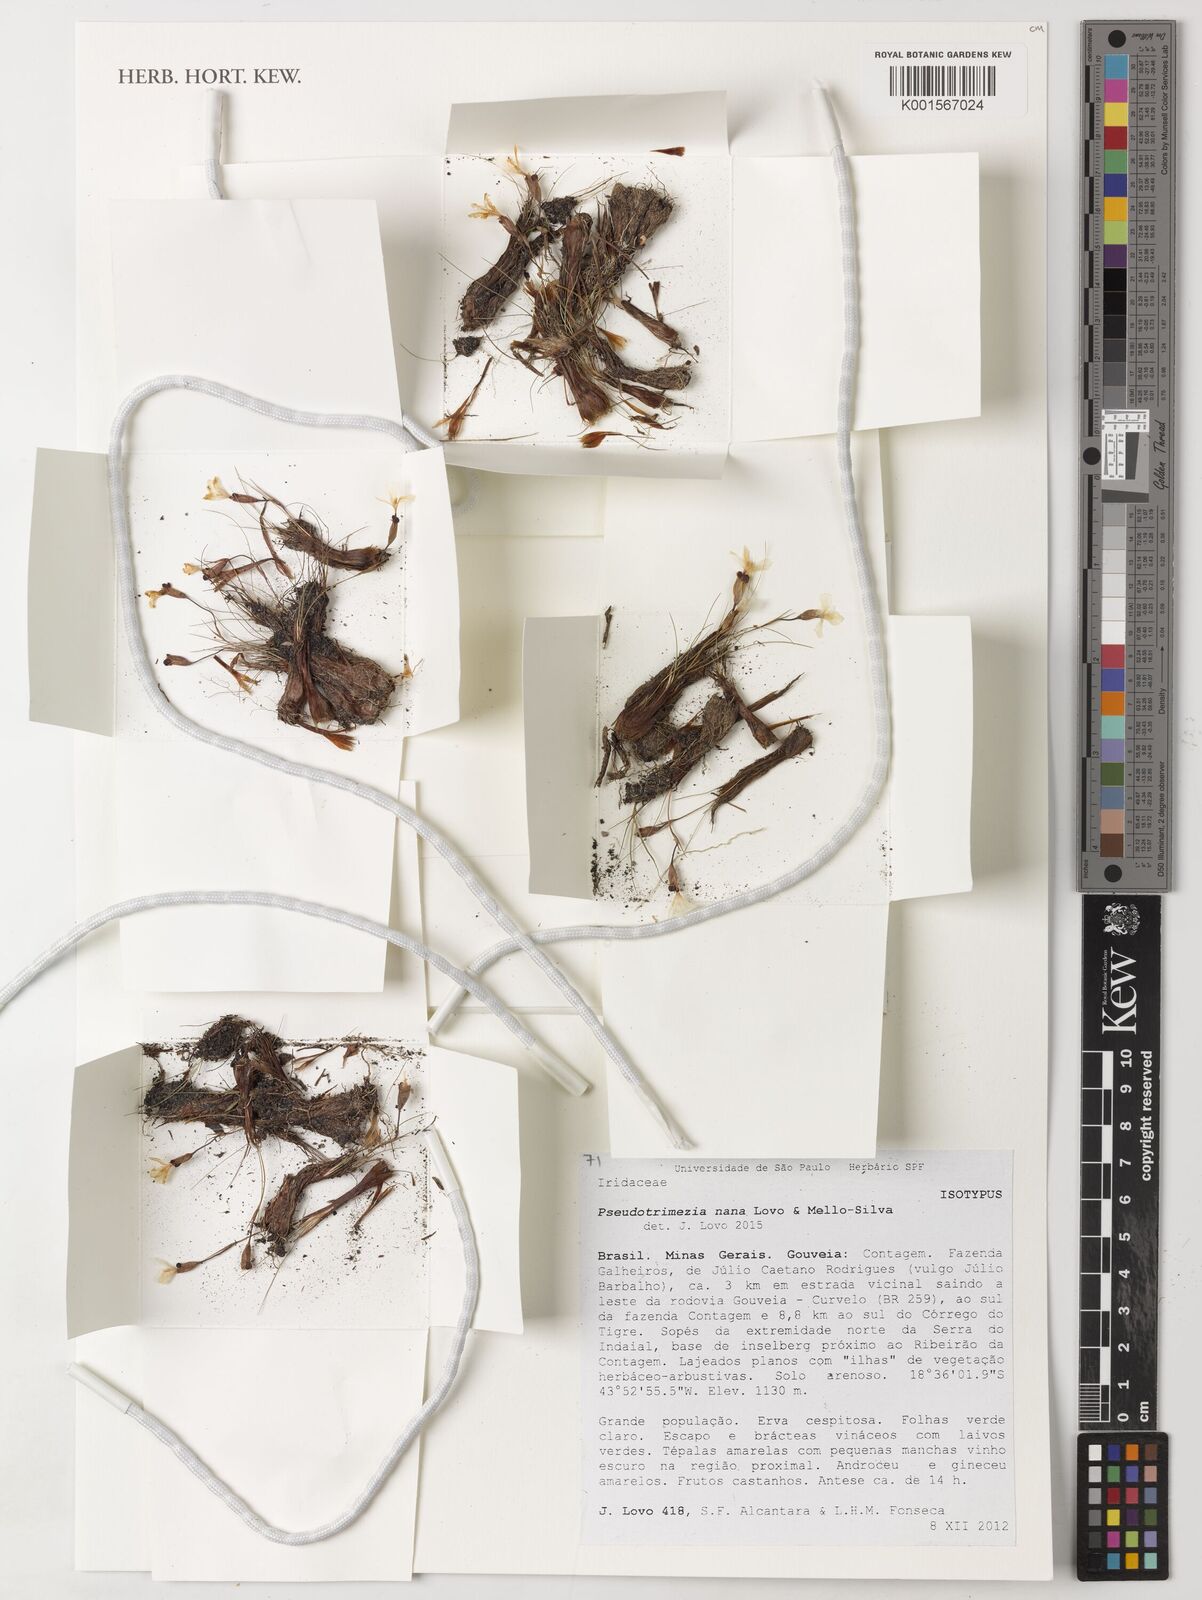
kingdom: Plantae
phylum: Tracheophyta
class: Liliopsida
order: Asparagales
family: Iridaceae
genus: Trimezia
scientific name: Trimezia nana
